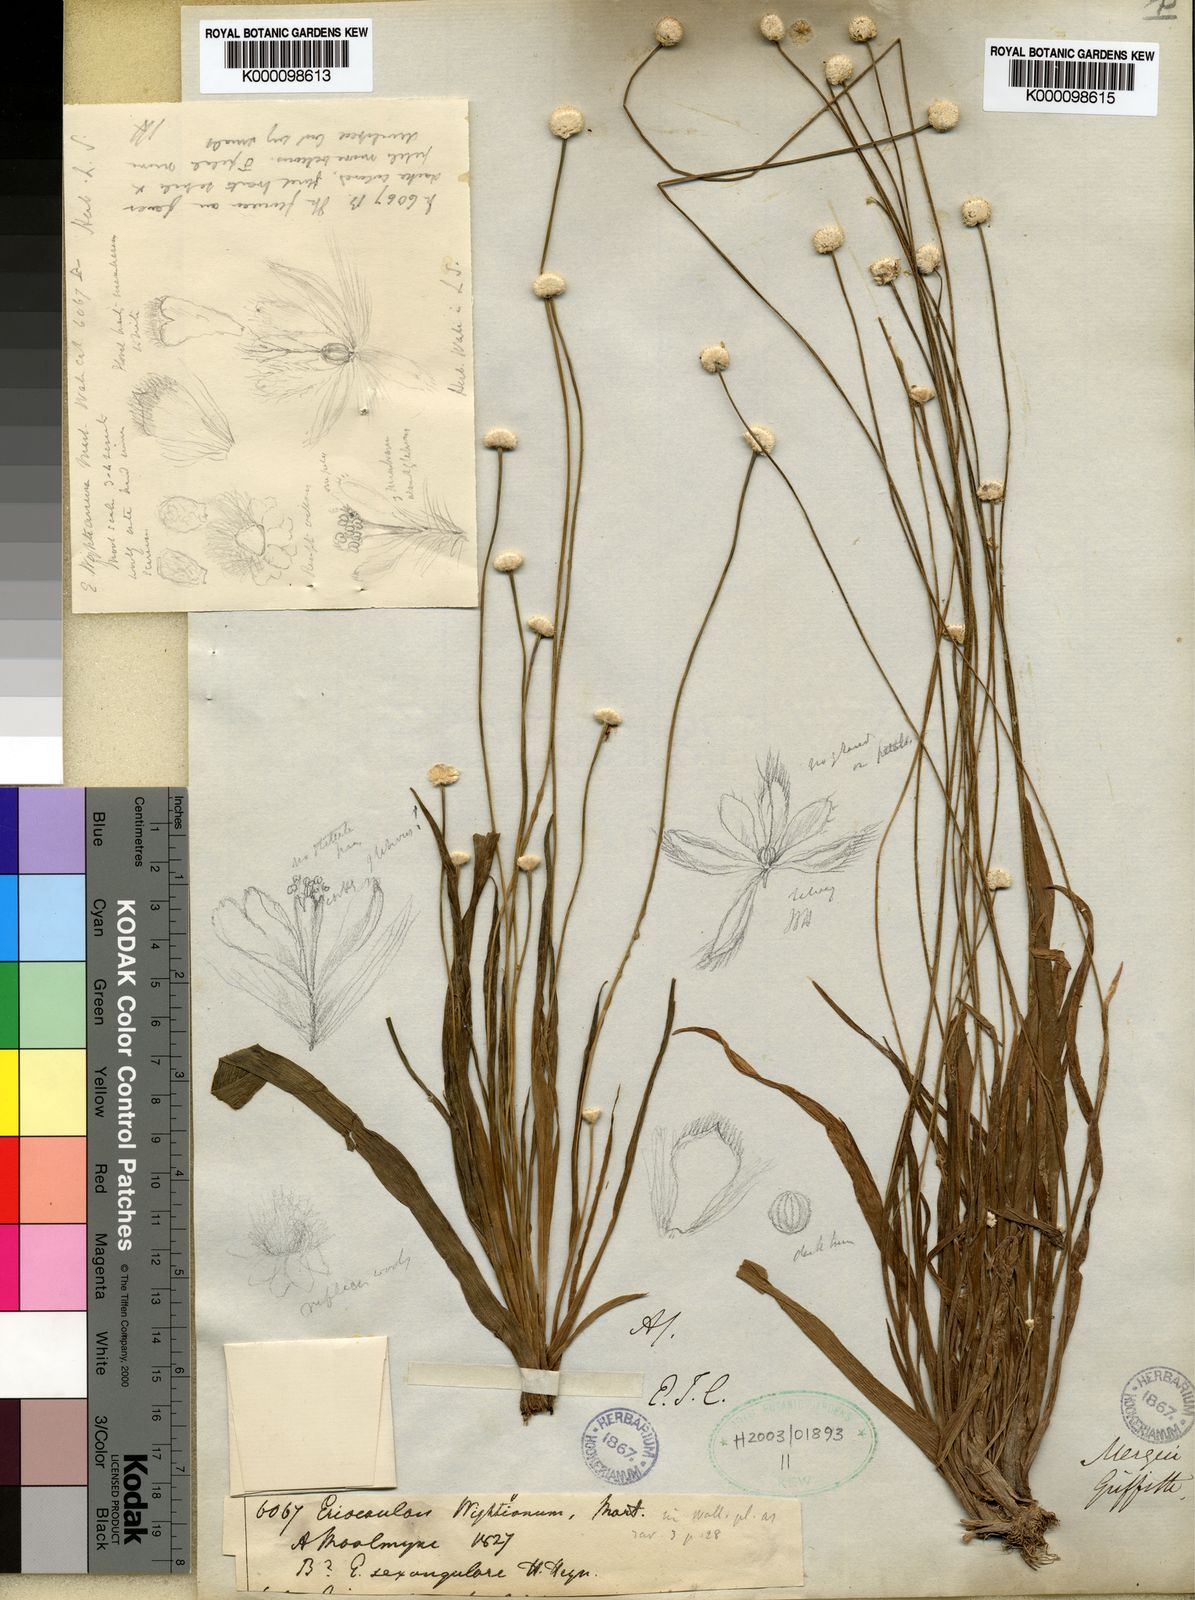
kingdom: Plantae
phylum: Tracheophyta
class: Liliopsida
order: Poales
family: Eriocaulaceae
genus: Eriocaulon
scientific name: Eriocaulon wightianum
